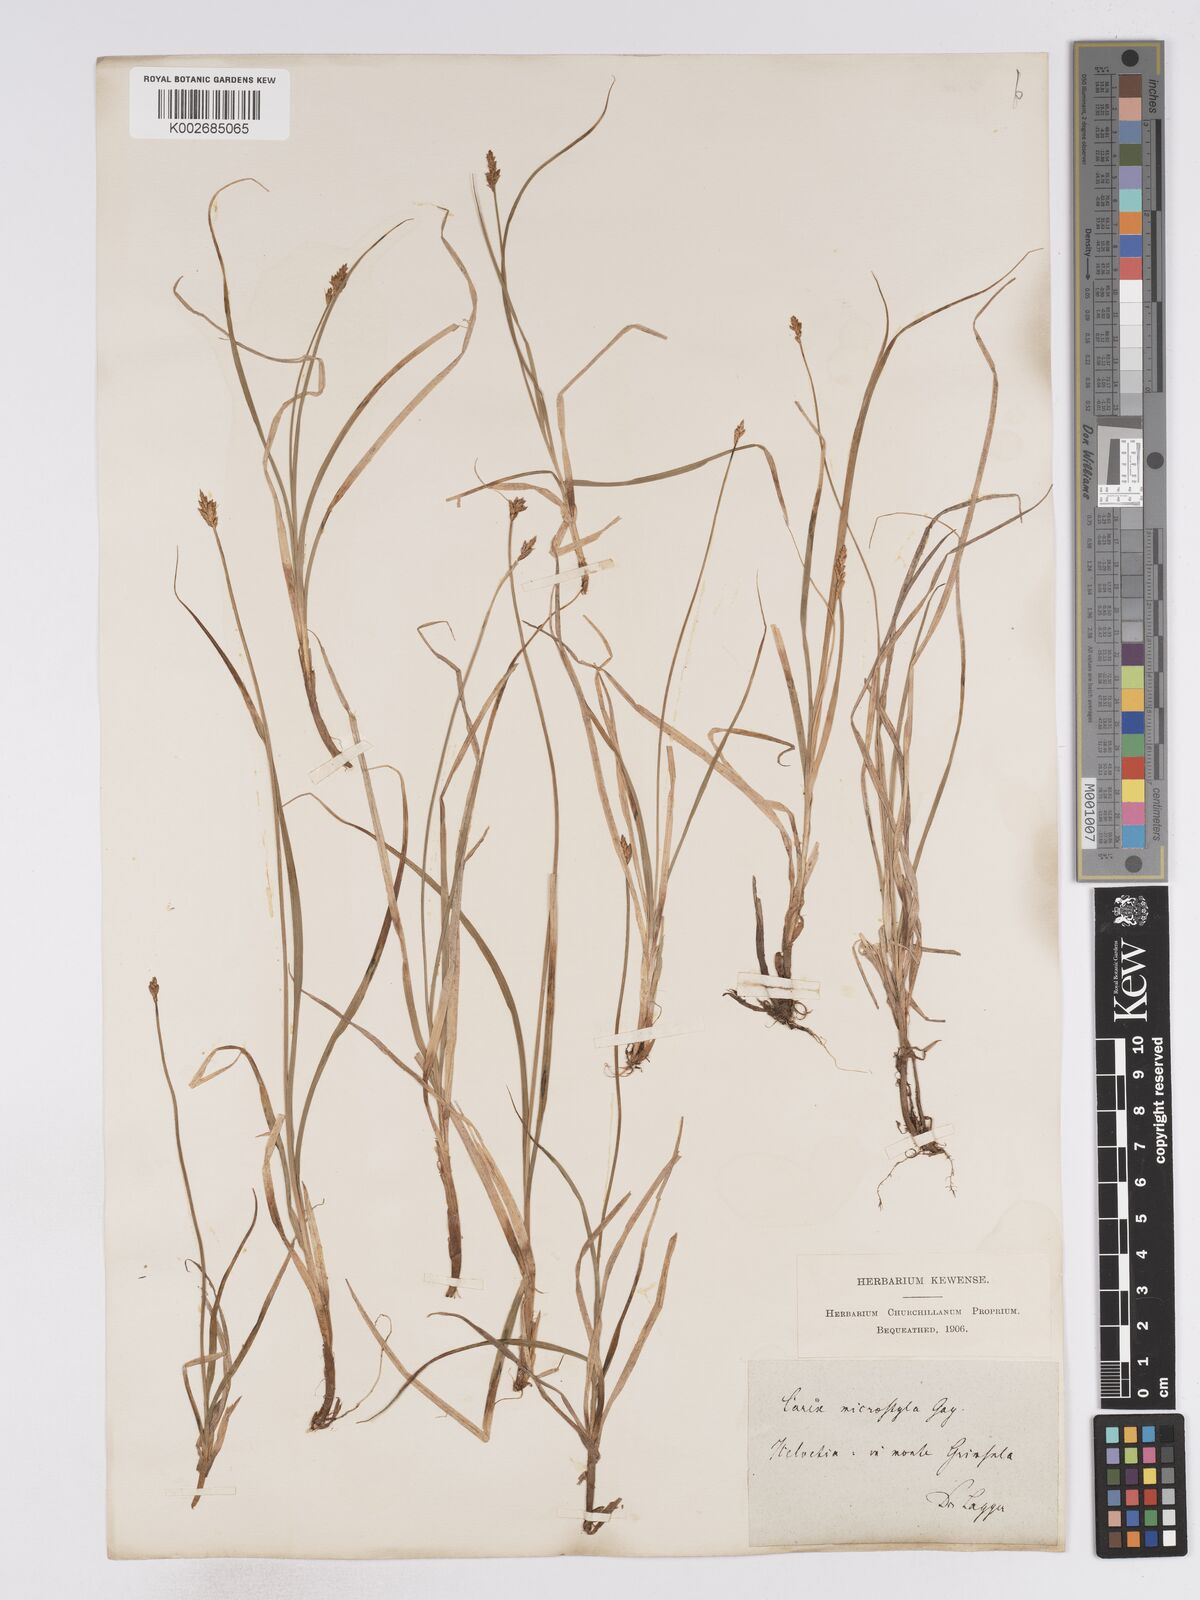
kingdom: Plantae
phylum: Tracheophyta
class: Liliopsida
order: Poales
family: Cyperaceae
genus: Carex
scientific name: Carex microstyla
